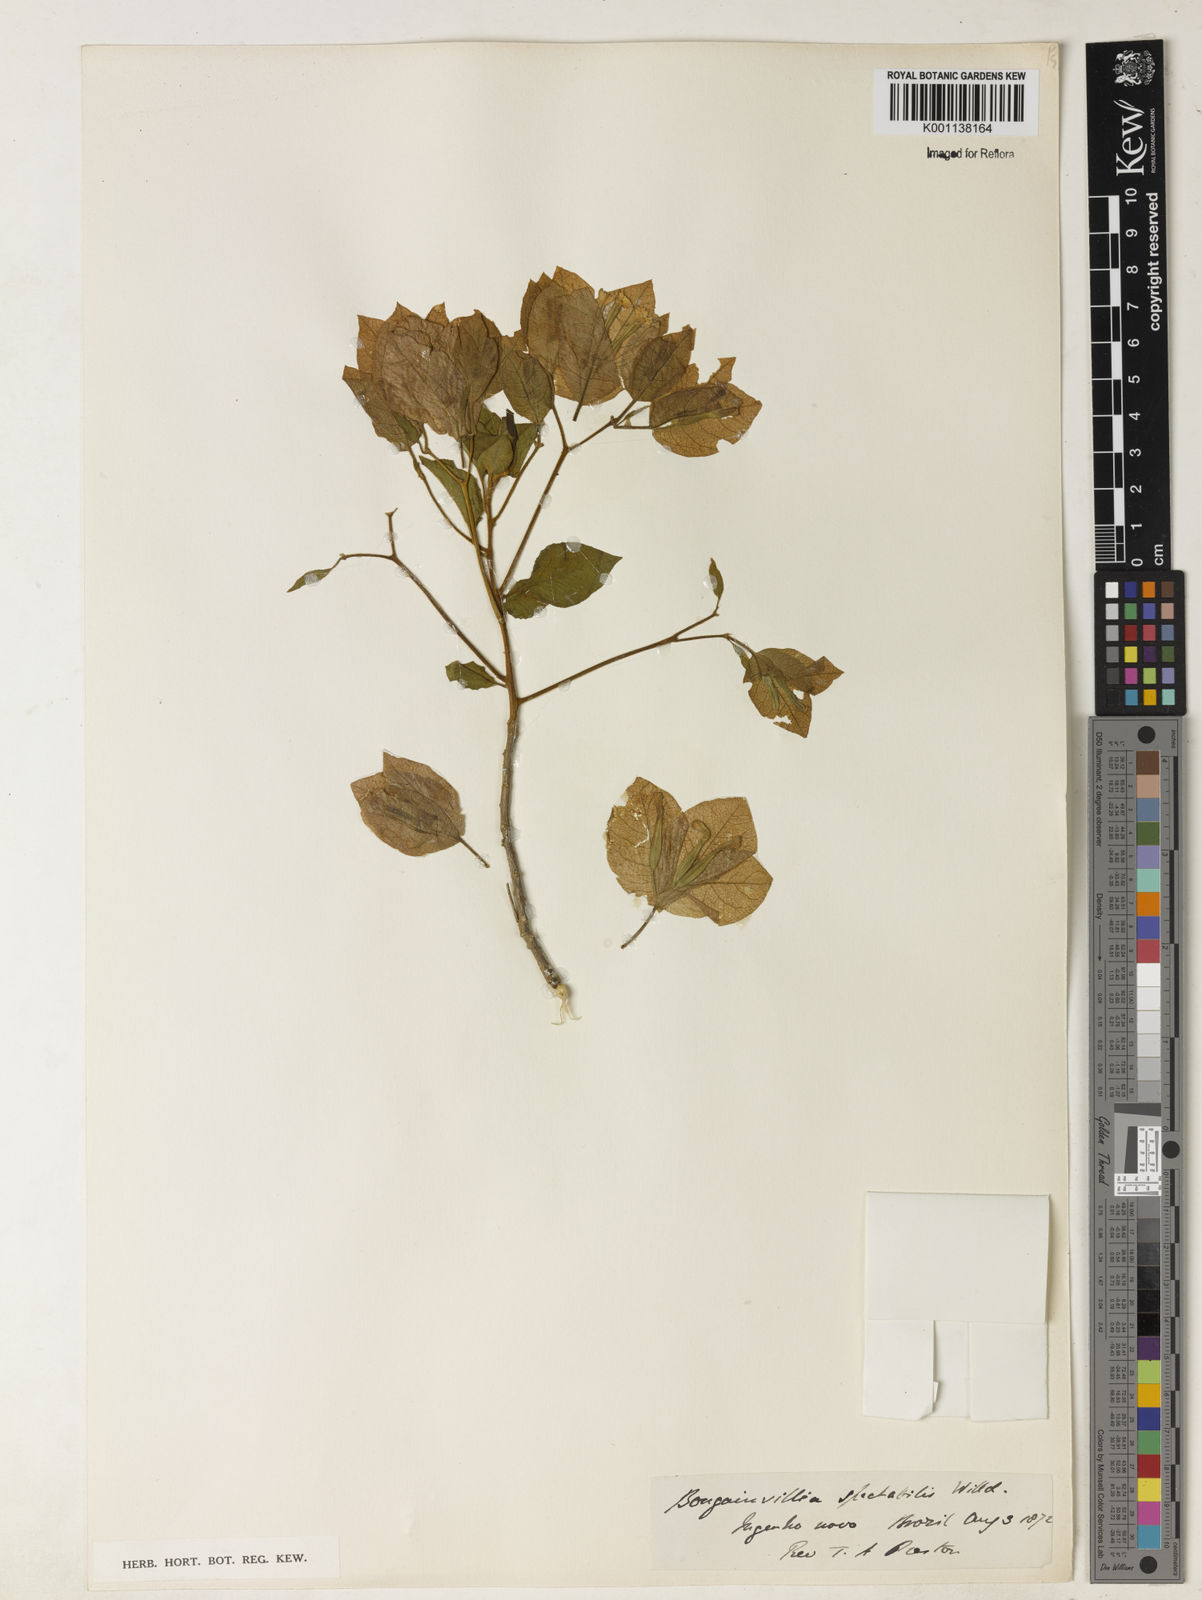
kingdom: Plantae
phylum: Tracheophyta
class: Magnoliopsida
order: Caryophyllales
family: Nyctaginaceae
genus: Bougainvillea
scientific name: Bougainvillea spectabilis
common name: Great bougainvillea
